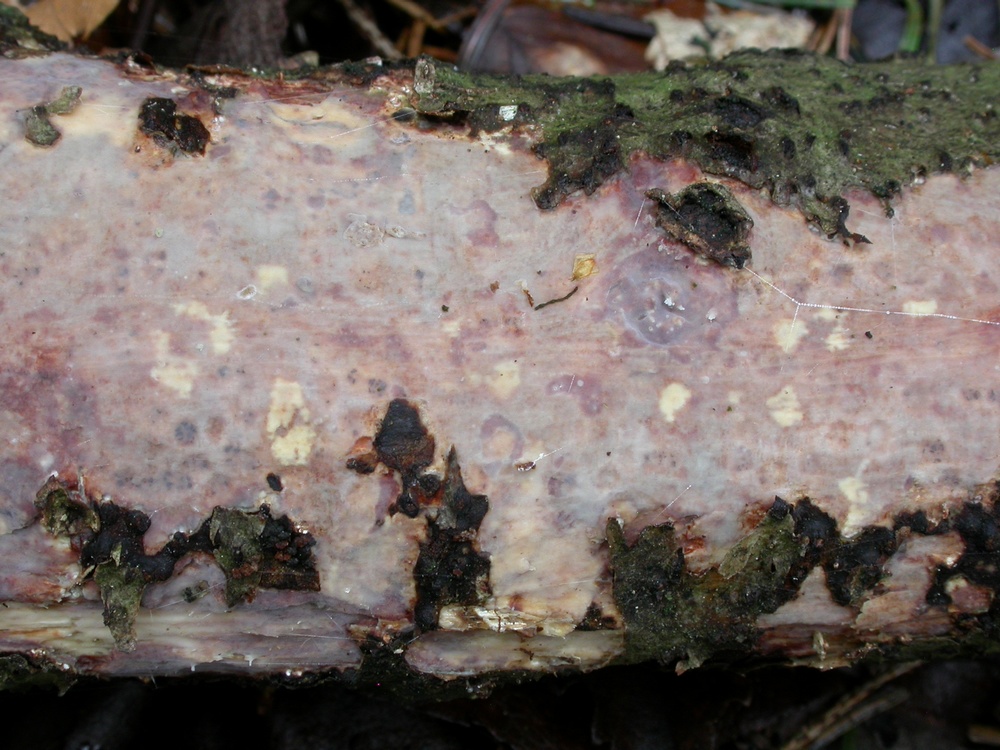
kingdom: Fungi
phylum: Basidiomycota
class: Agaricomycetes
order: Corticiales
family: Vuilleminiaceae
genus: Vuilleminia
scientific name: Vuilleminia comedens
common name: almindelig barksprænger
